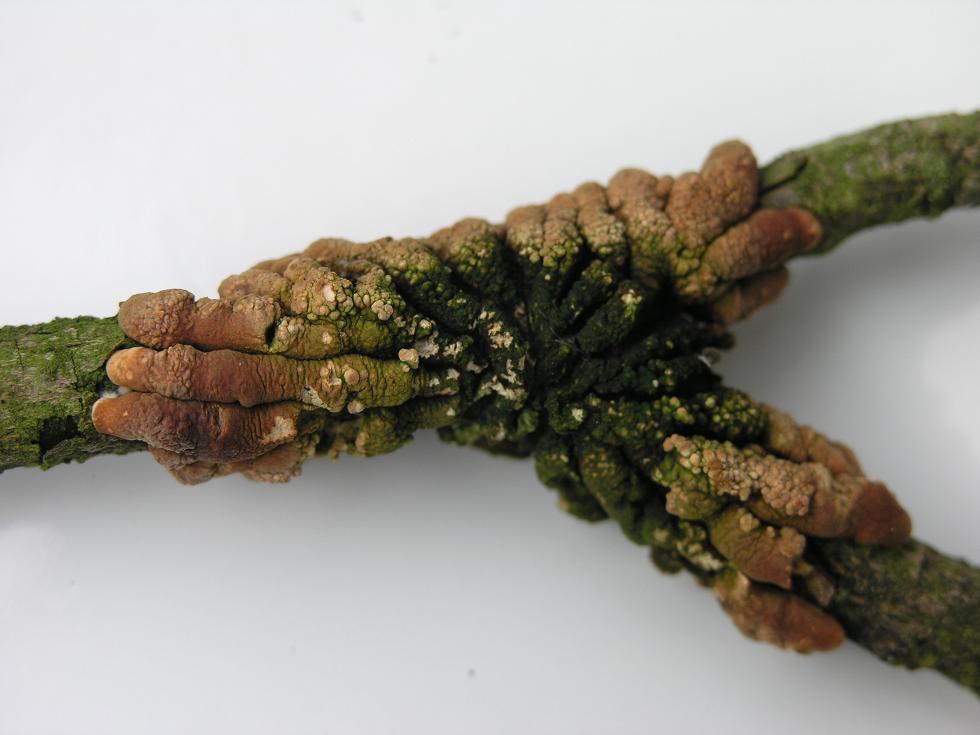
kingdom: Fungi
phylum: Ascomycota
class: Sordariomycetes
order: Hypocreales
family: Hypocreaceae
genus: Hypocreopsis
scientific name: Hypocreopsis lichenoides
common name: pilfinger
